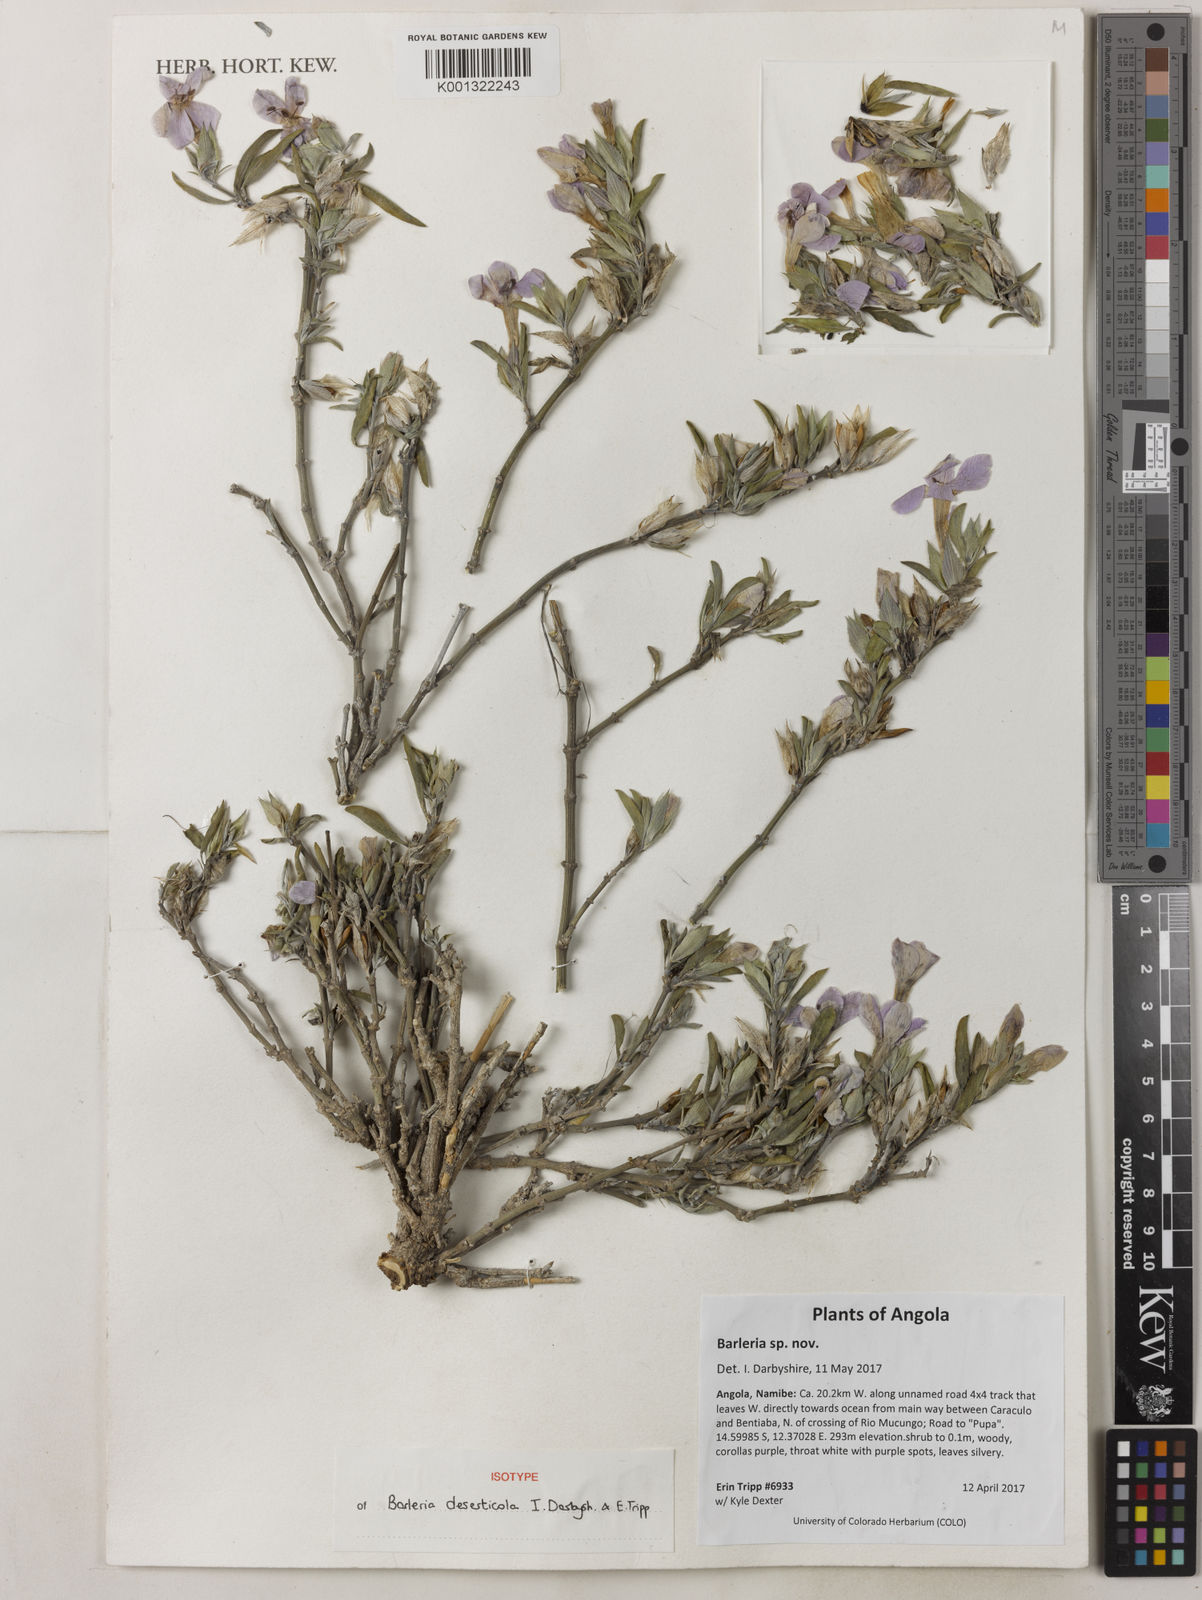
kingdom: Plantae
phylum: Tracheophyta
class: Magnoliopsida
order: Lamiales
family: Acanthaceae
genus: Barleria
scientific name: Barleria
